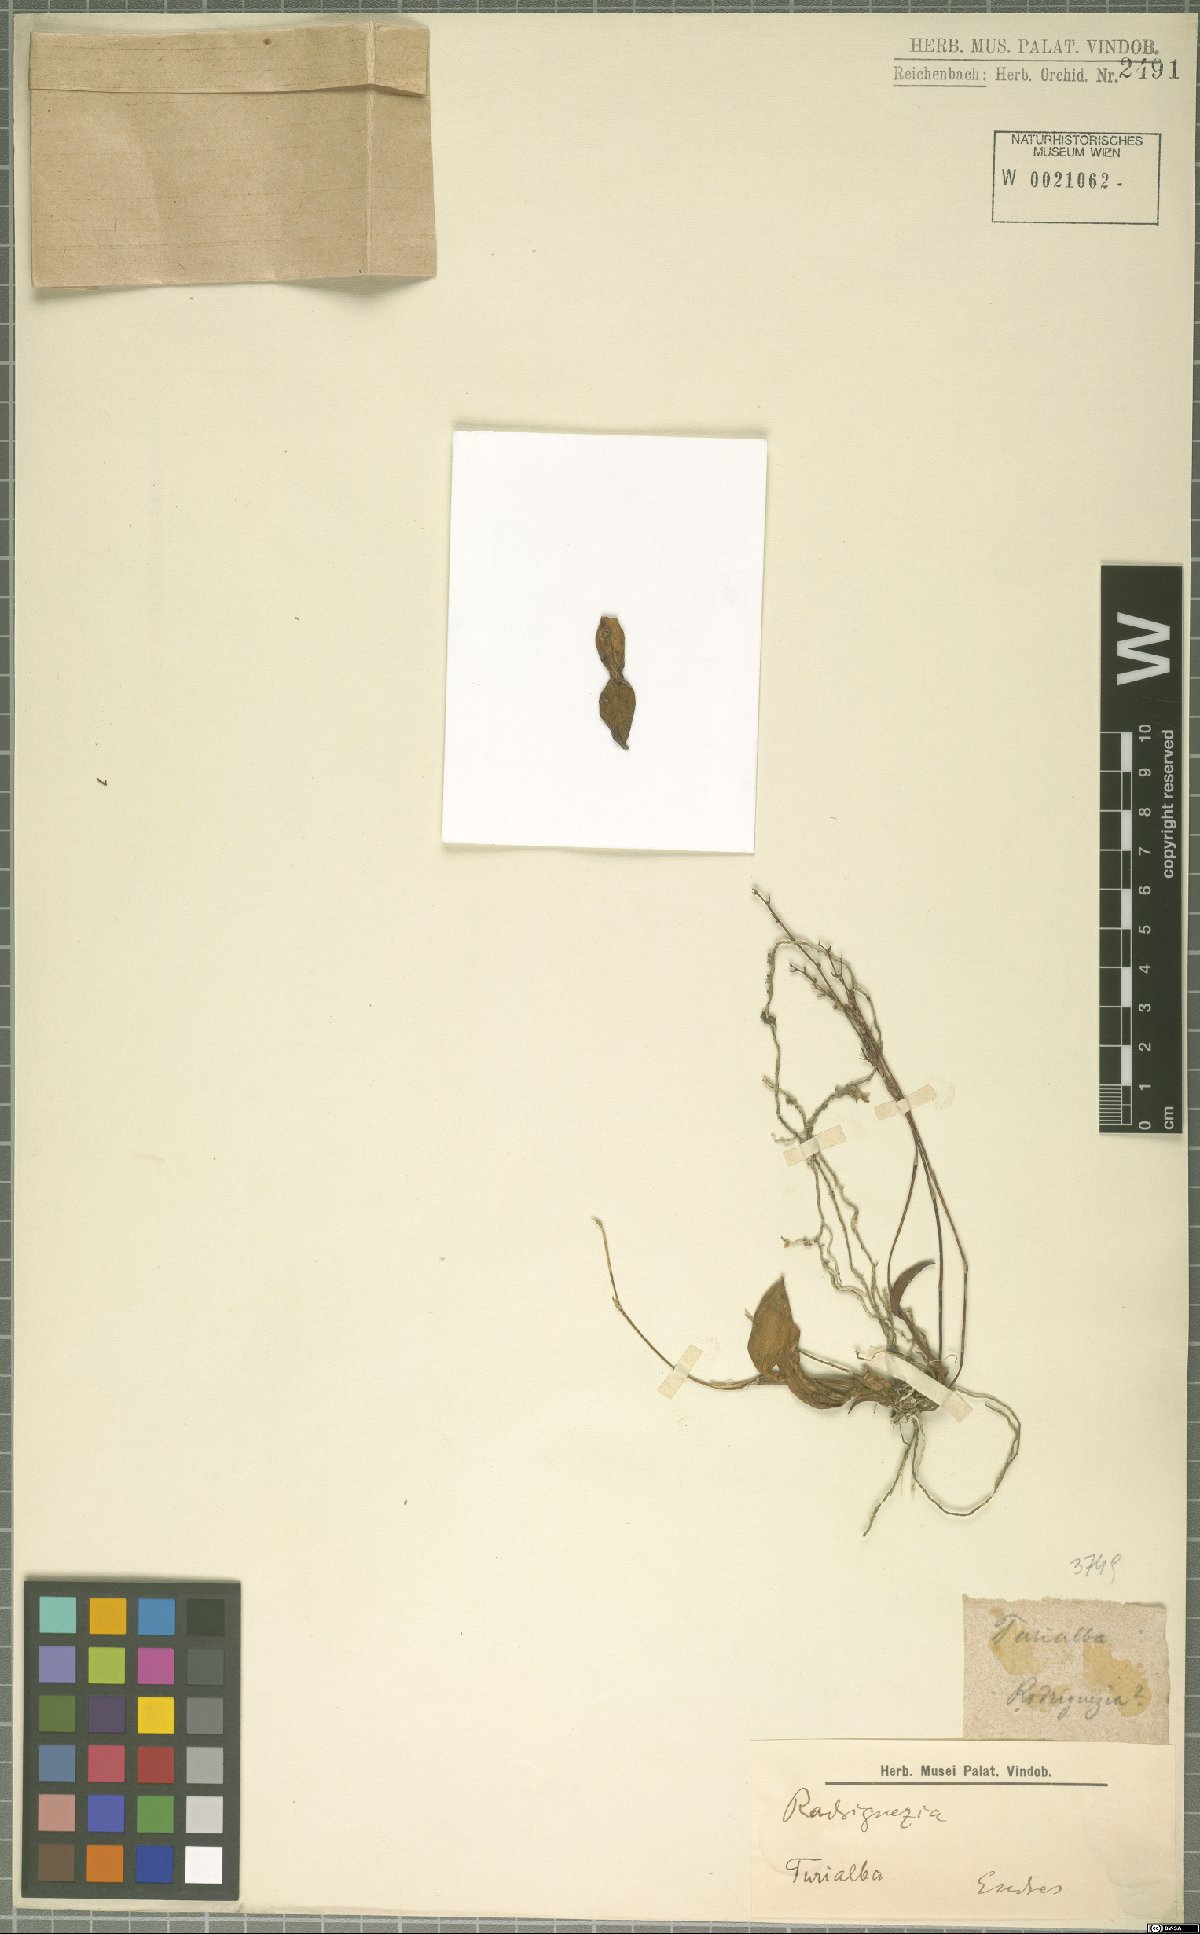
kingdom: Plantae
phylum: Tracheophyta
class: Liliopsida
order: Asparagales
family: Orchidaceae
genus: Rodriguezia
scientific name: Rodriguezia
